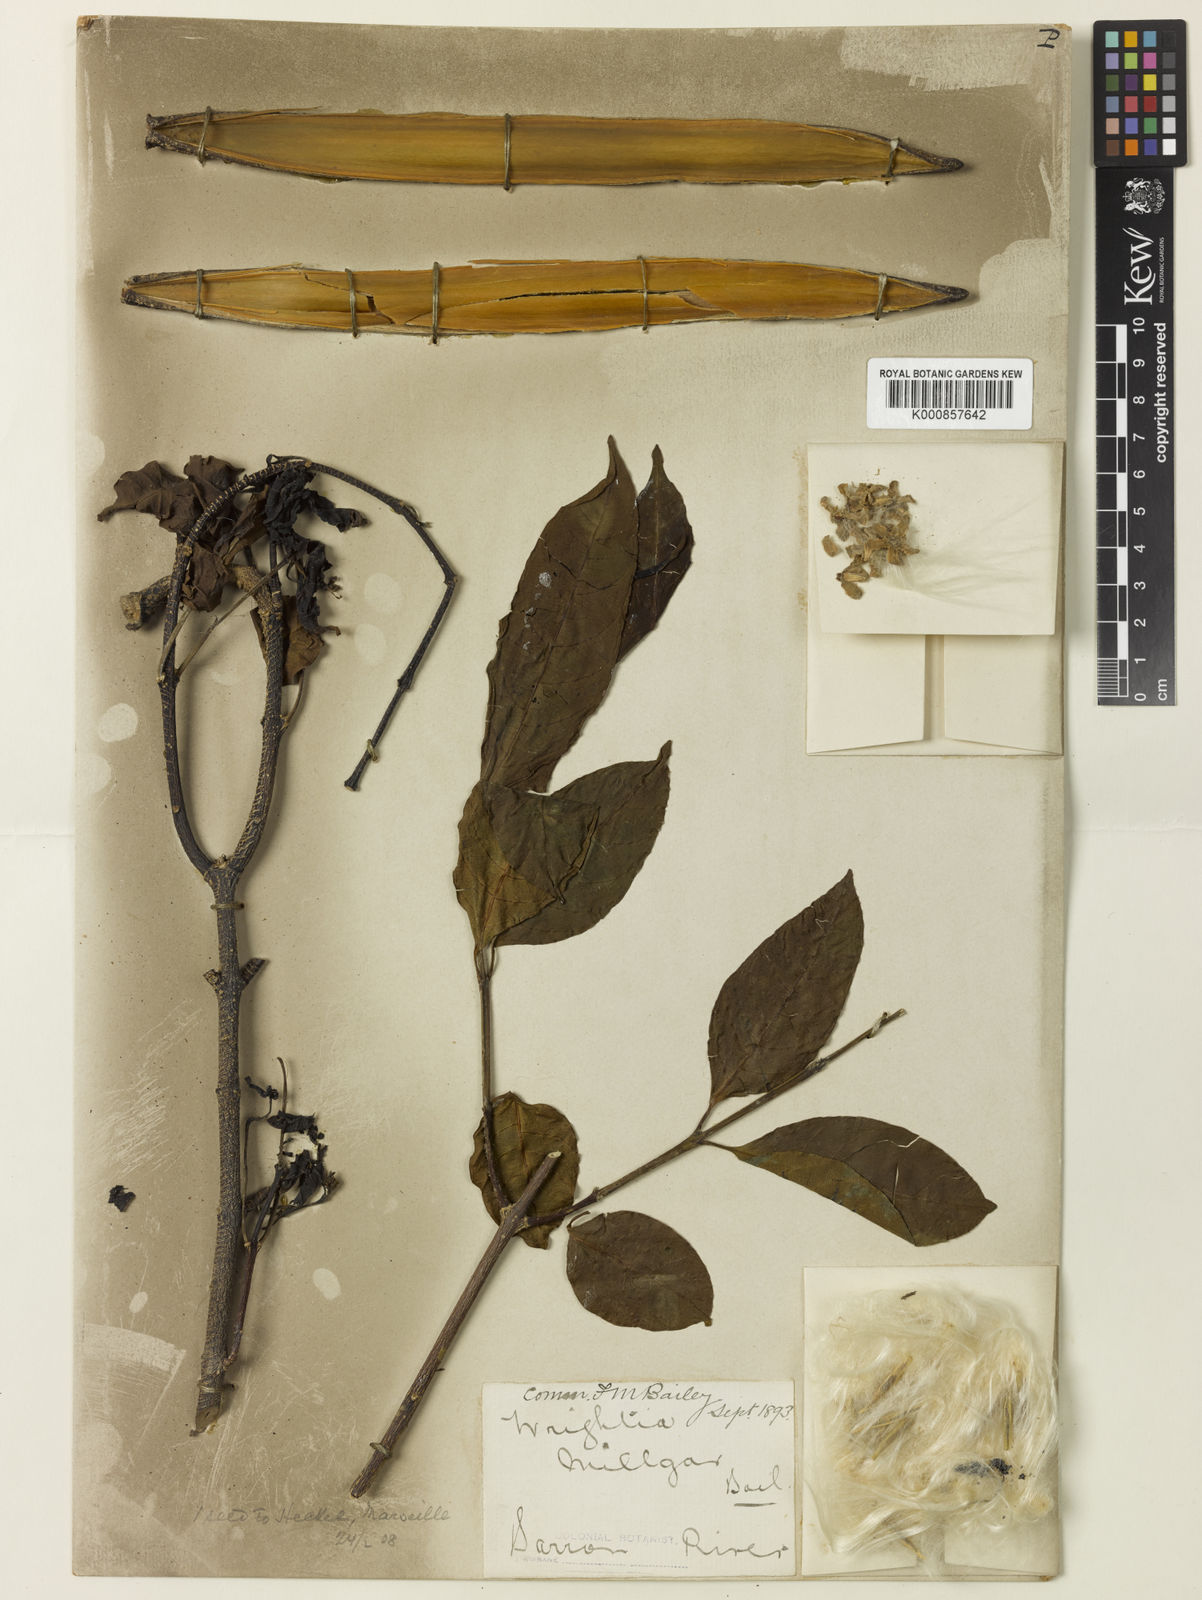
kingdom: Plantae
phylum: Tracheophyta
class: Magnoliopsida
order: Gentianales
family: Apocynaceae
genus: Wrightia
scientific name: Wrightia laevis
